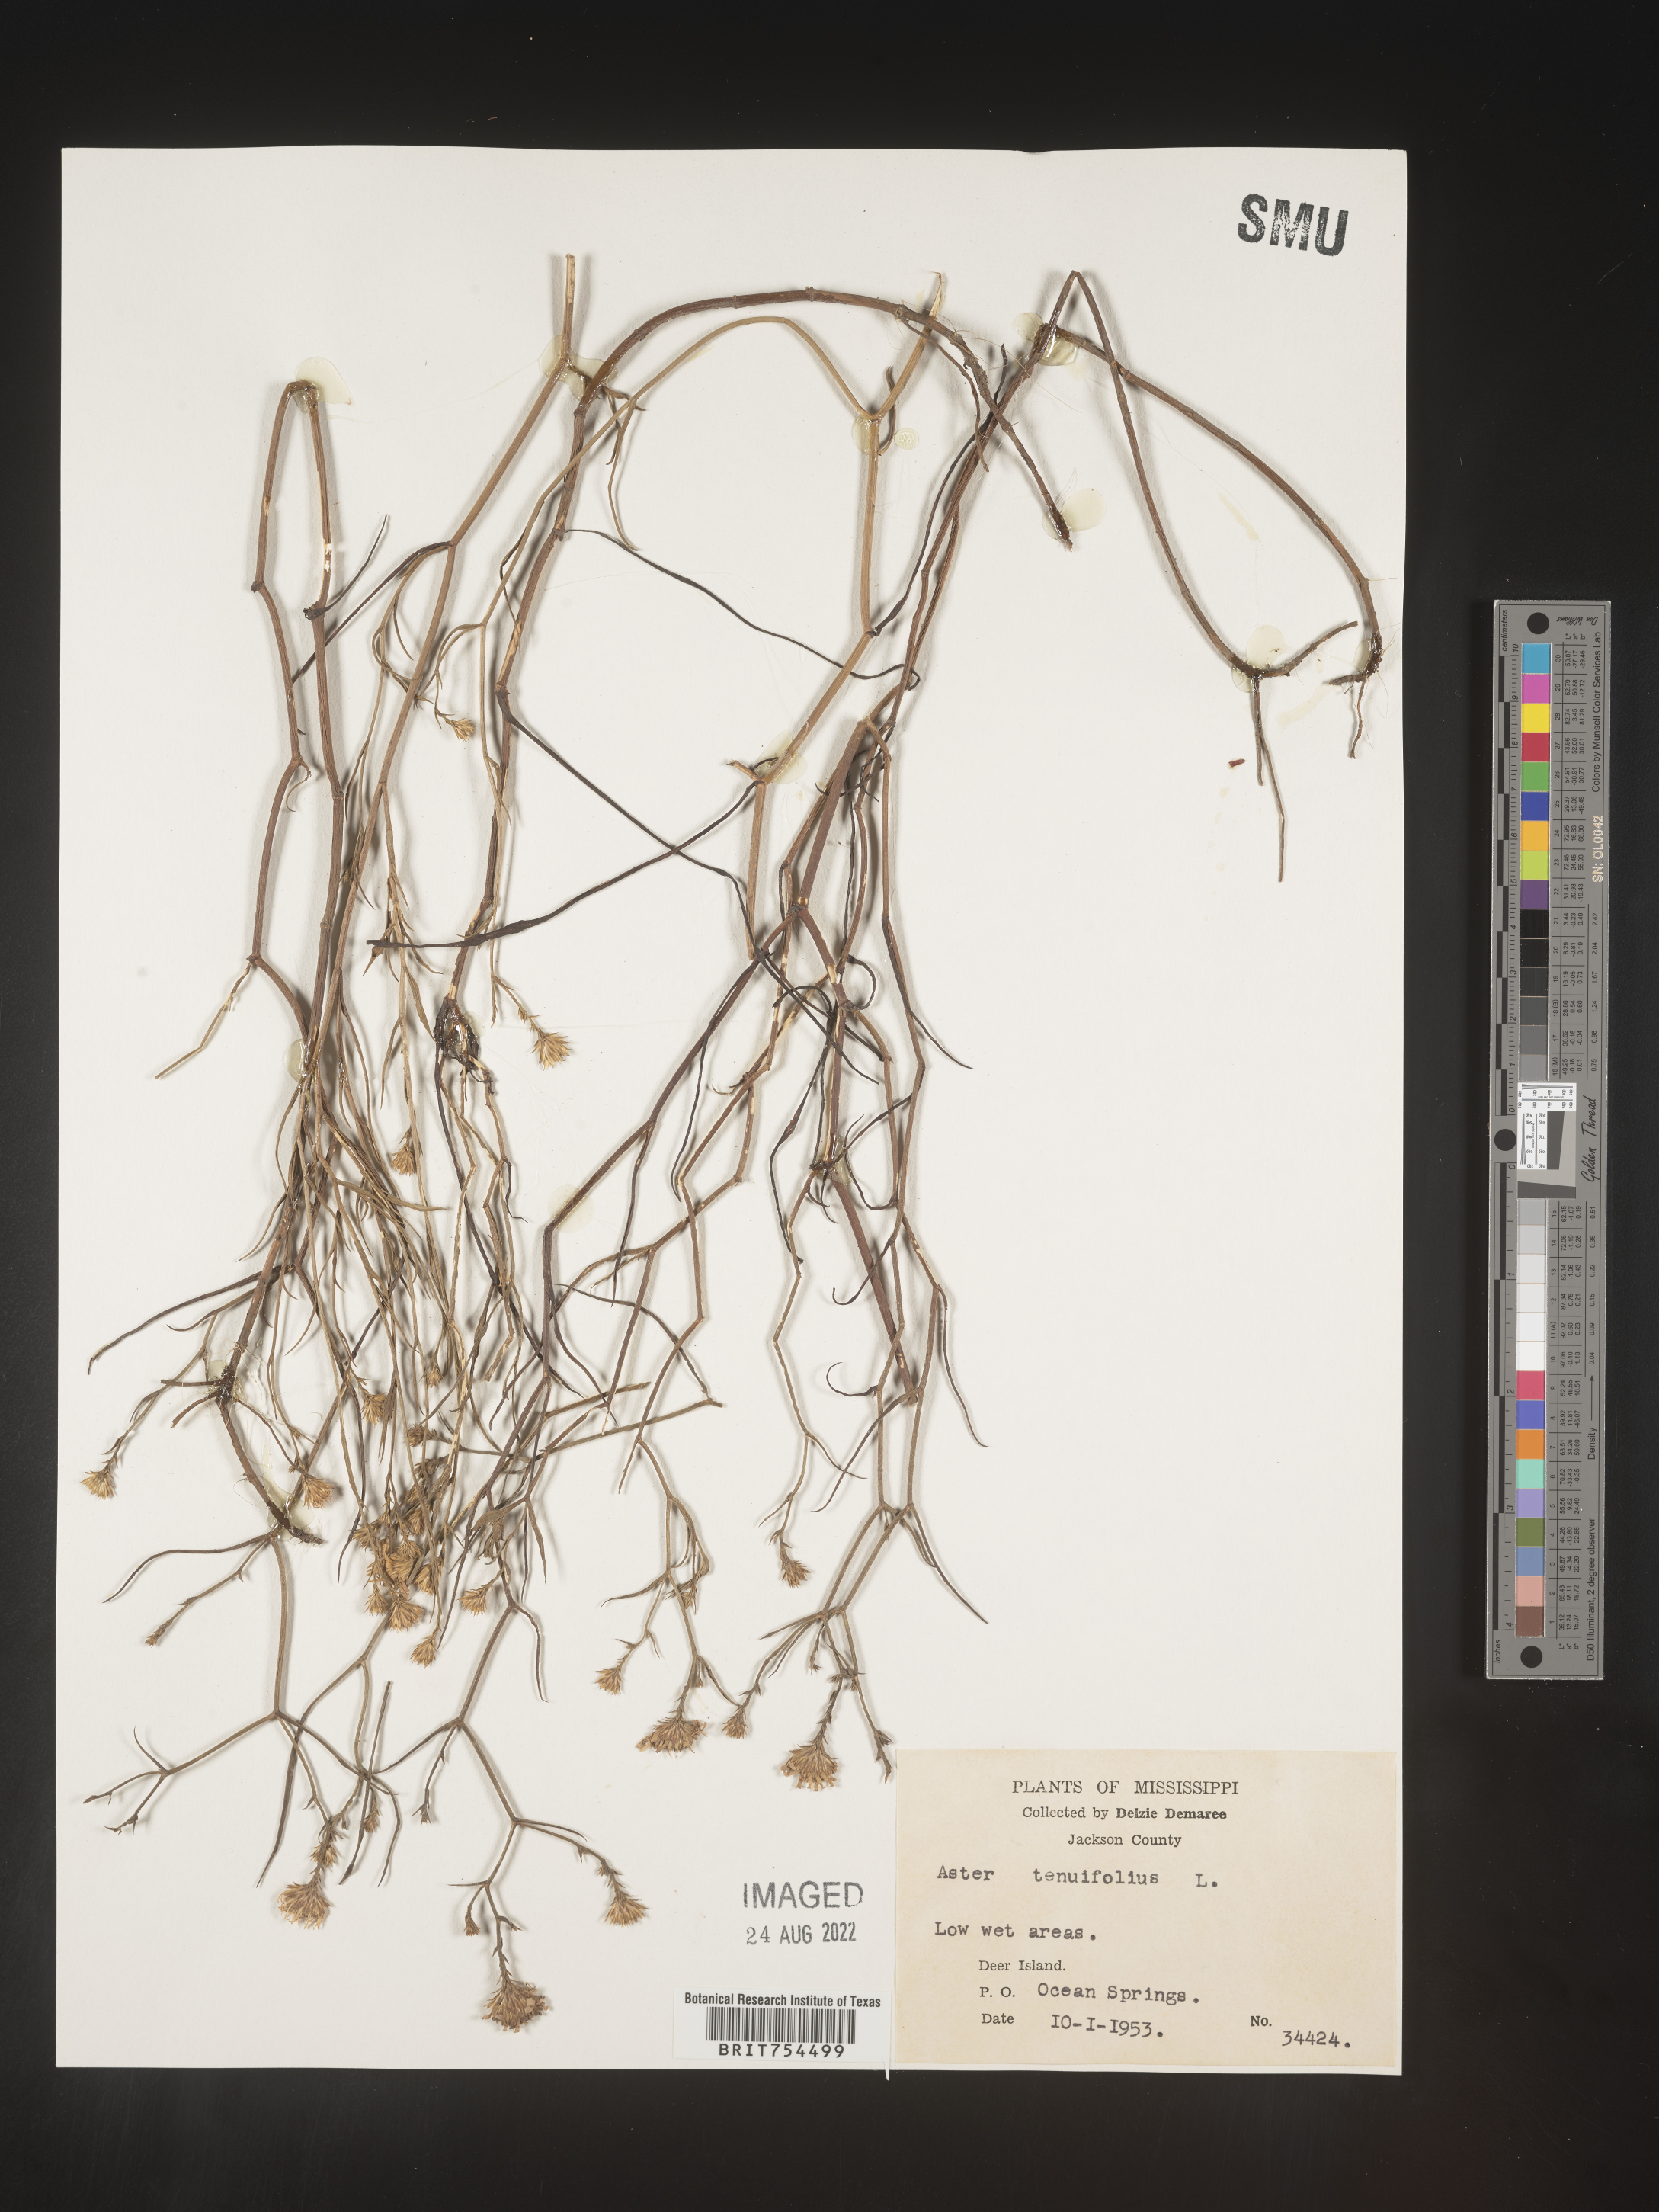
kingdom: Plantae
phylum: Tracheophyta
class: Magnoliopsida
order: Asterales
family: Asteraceae
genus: Symphyotrichum
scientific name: Symphyotrichum tenuifolium
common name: Perennial salt-marsh aster
